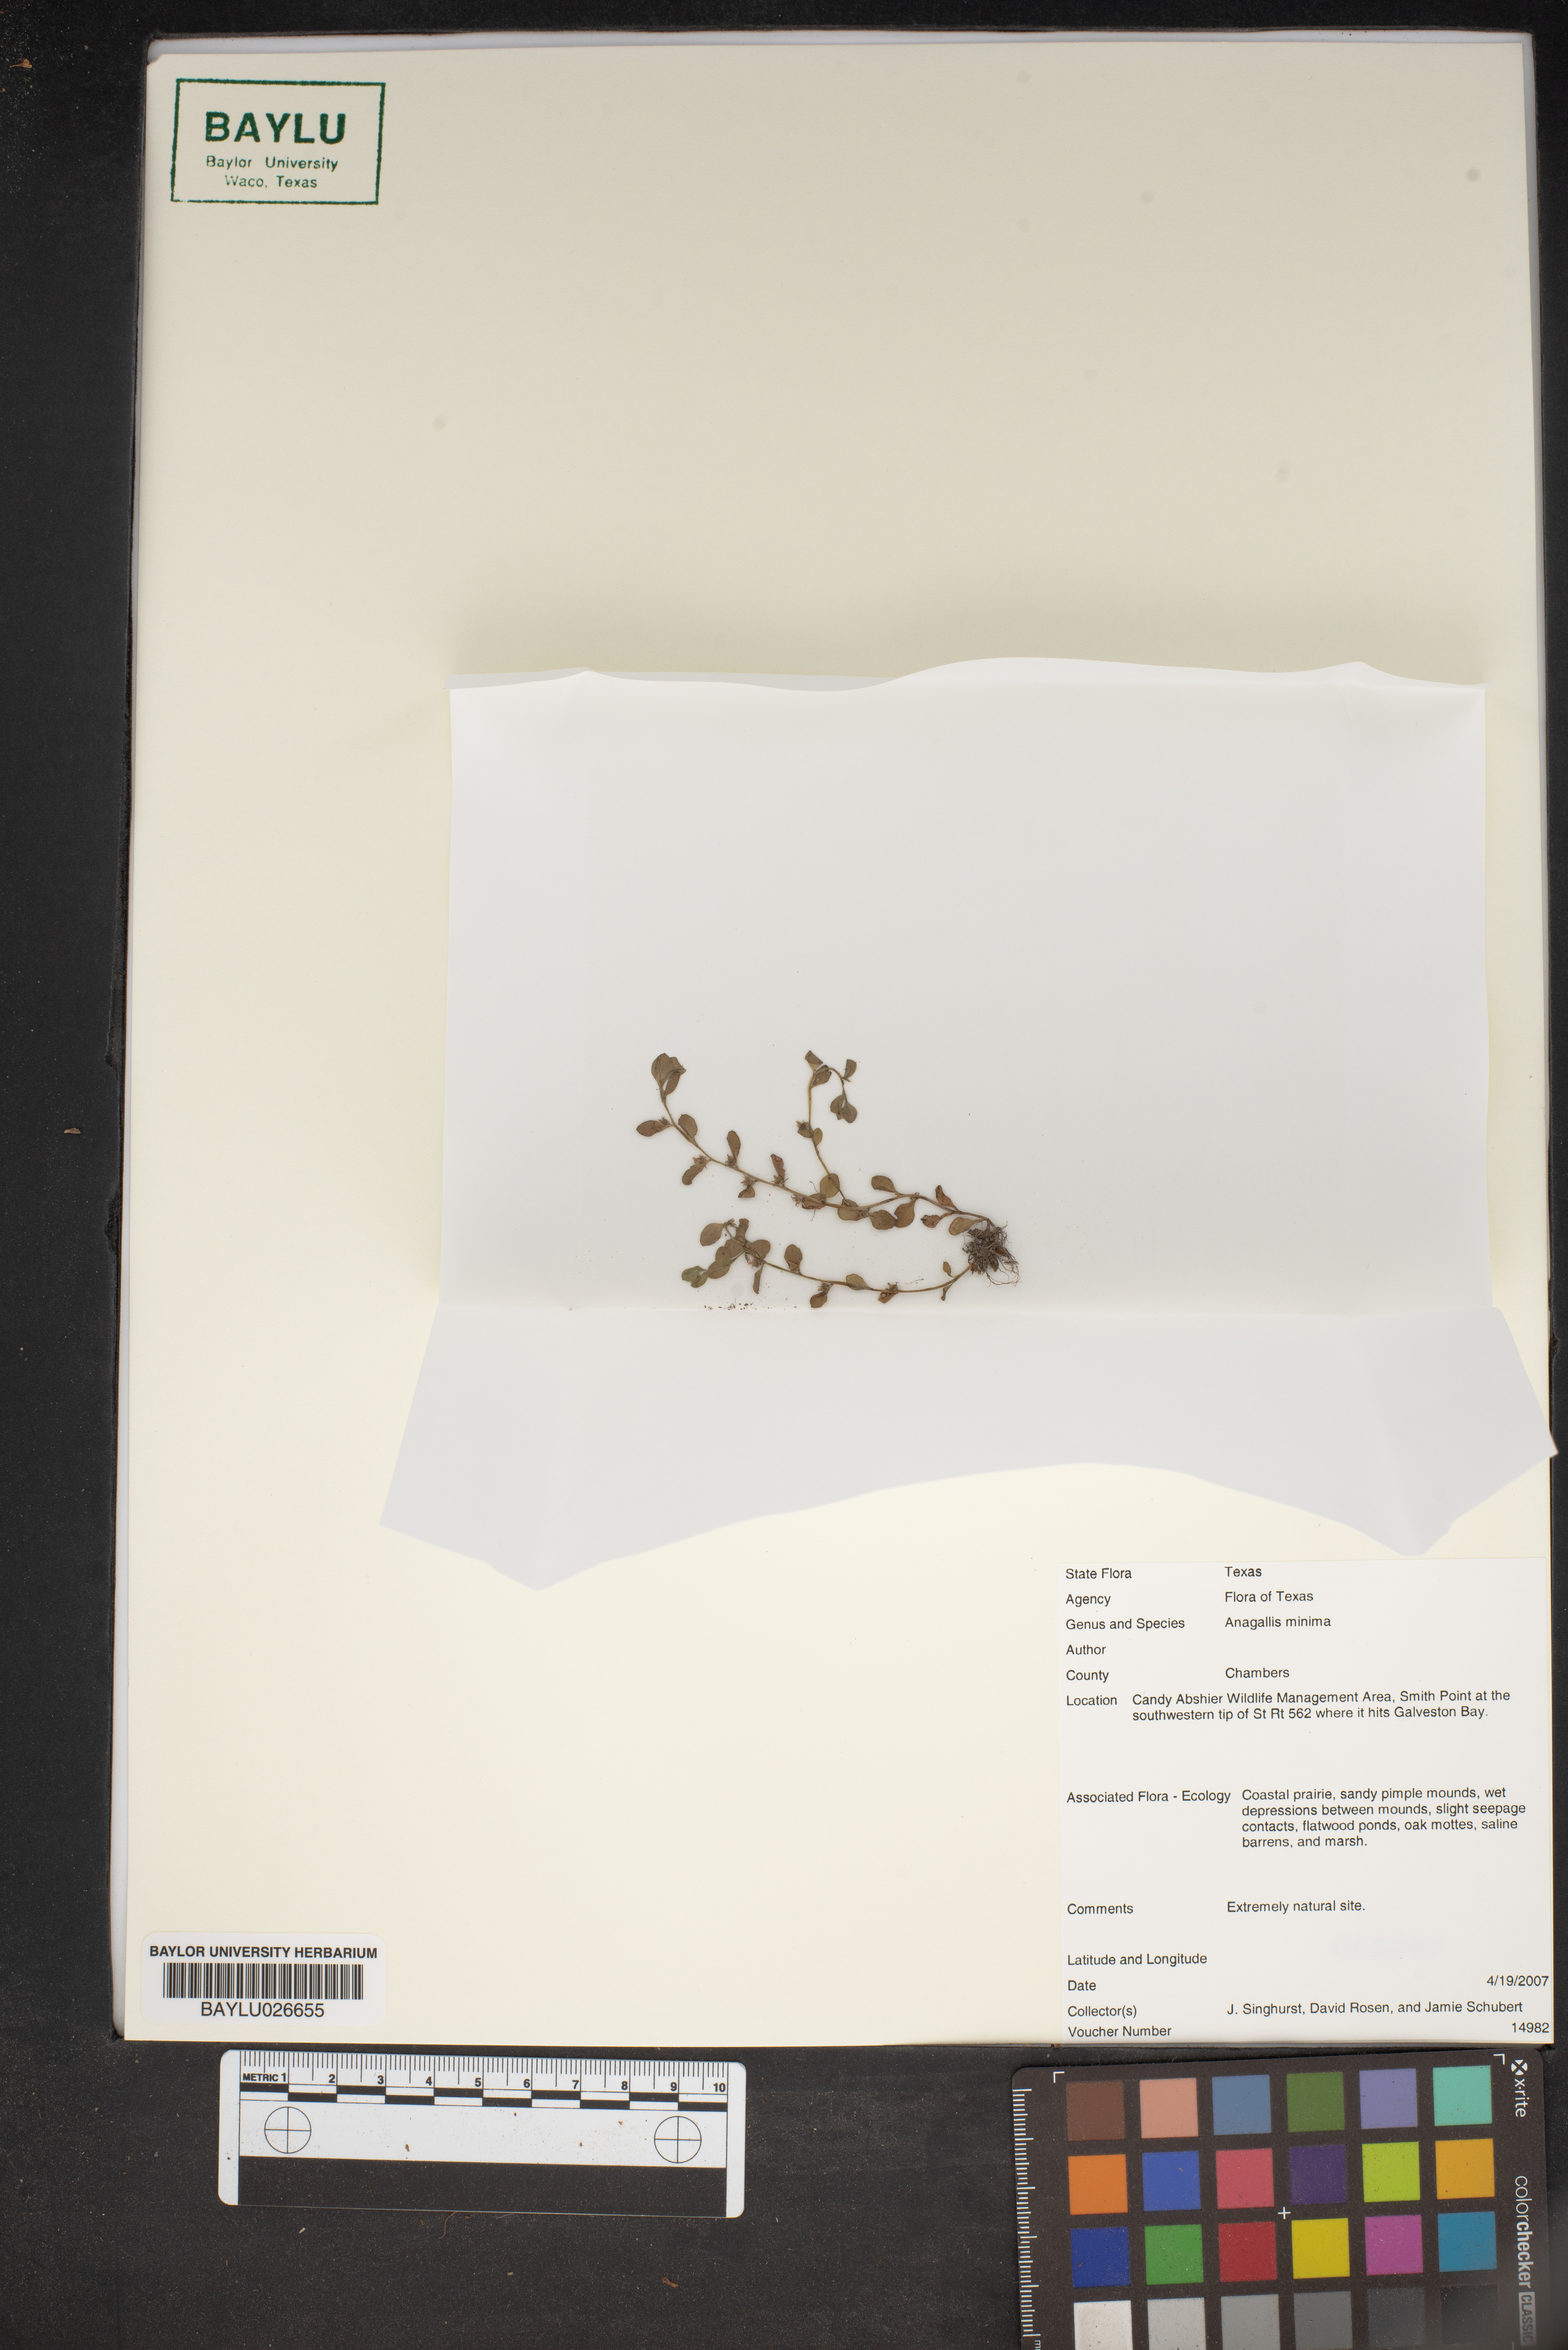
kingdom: Plantae
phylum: Tracheophyta
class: Magnoliopsida
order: Ericales
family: Primulaceae
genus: Lysimachia
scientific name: Lysimachia minima
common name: Chaffweed
